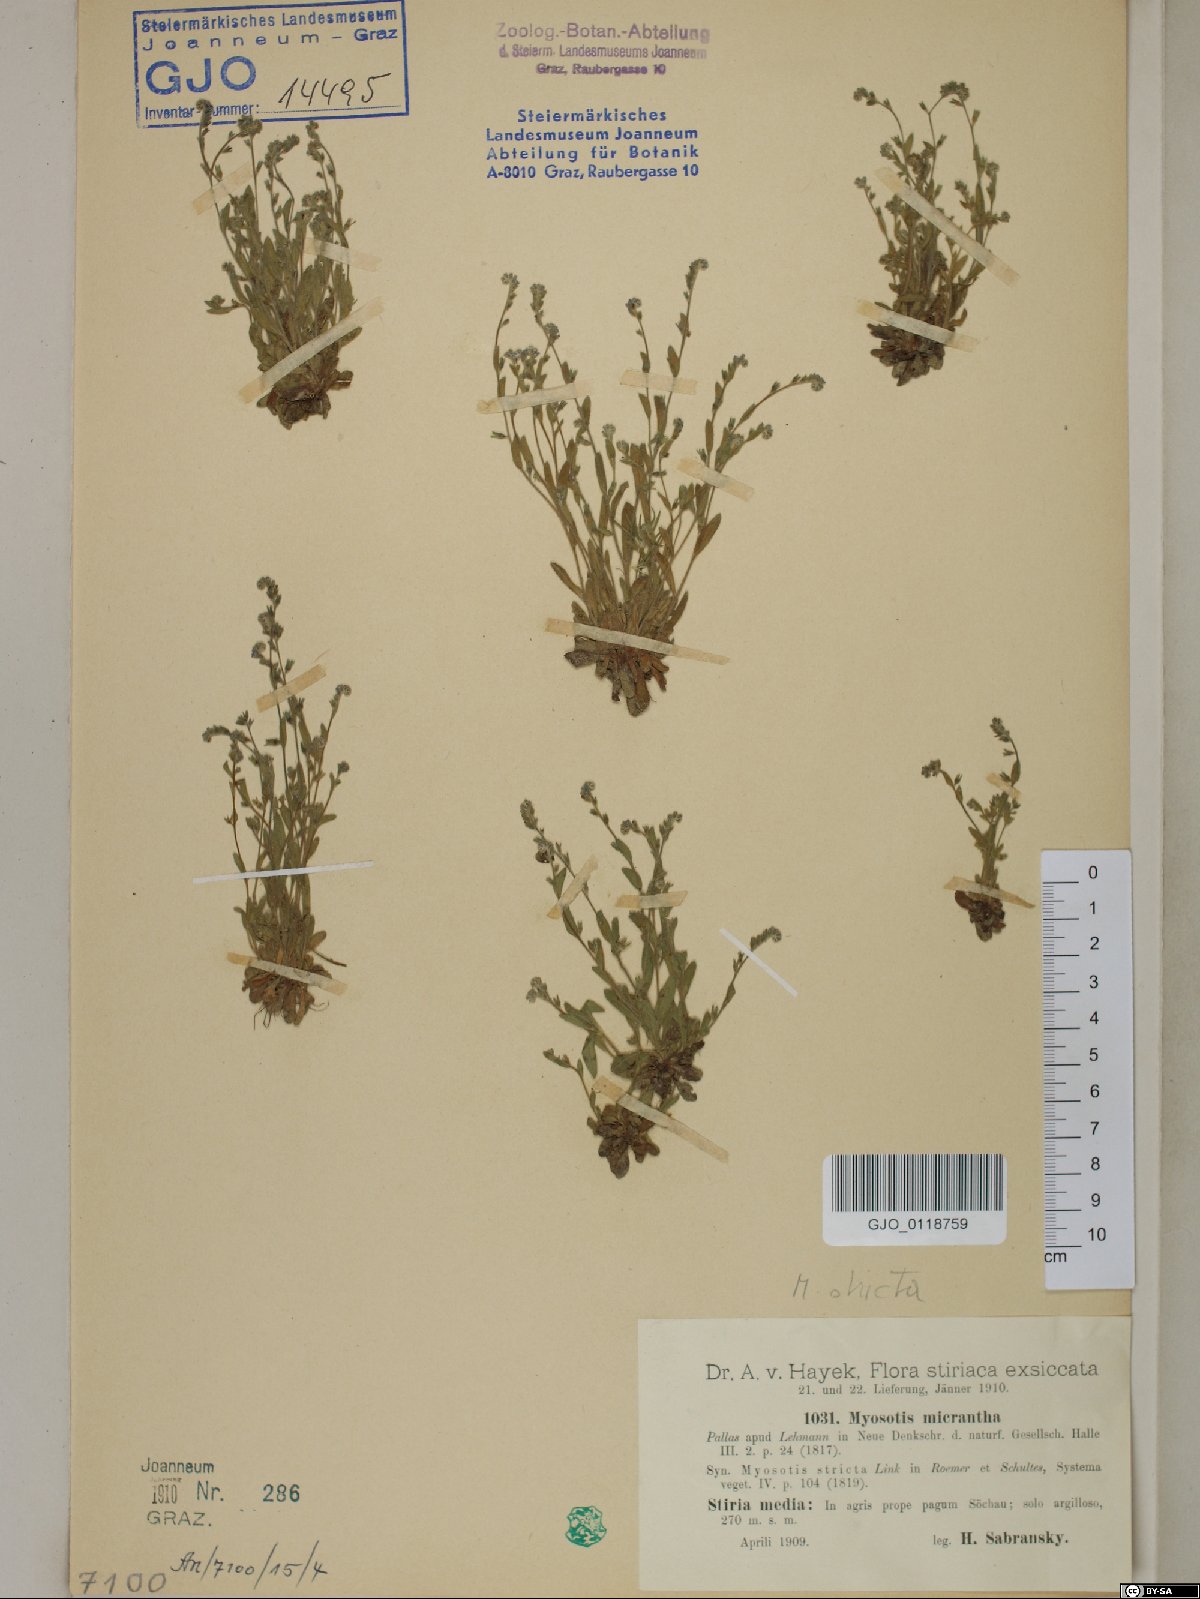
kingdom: Plantae
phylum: Tracheophyta
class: Magnoliopsida
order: Boraginales
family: Boraginaceae
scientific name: Boraginaceae
